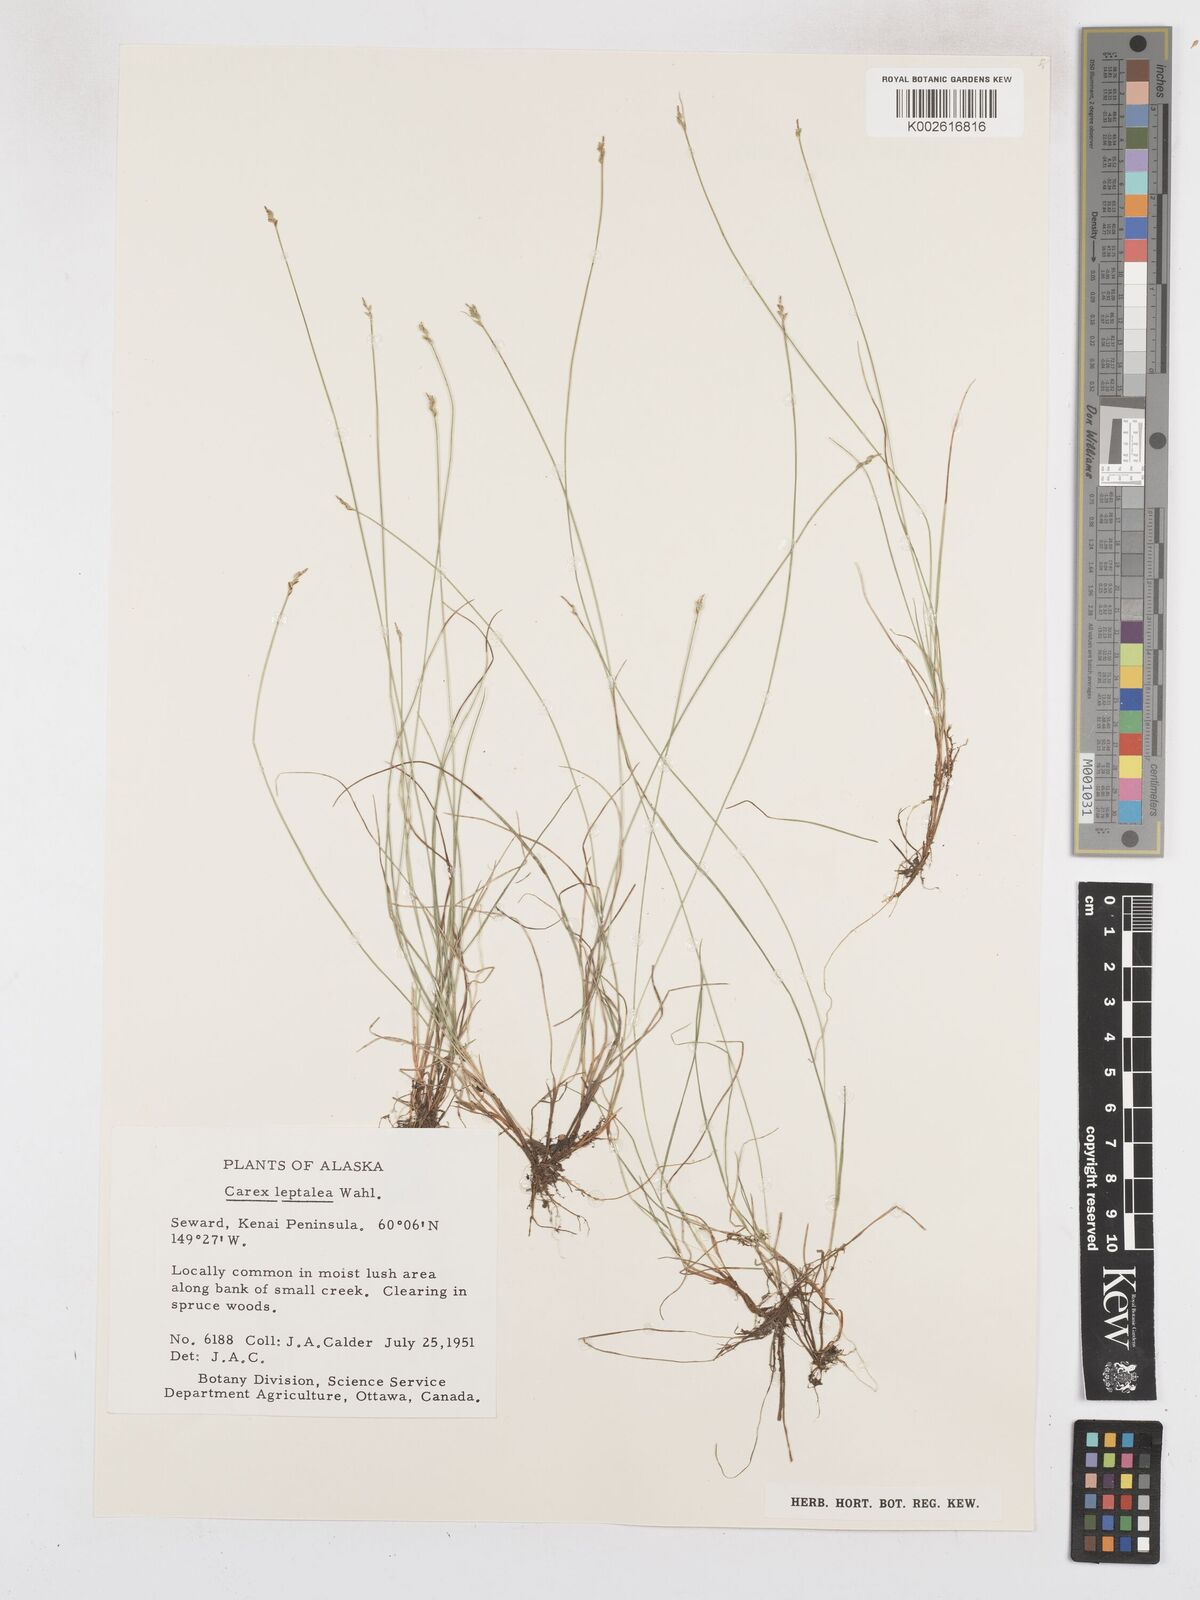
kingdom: Plantae
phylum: Tracheophyta
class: Liliopsida
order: Poales
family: Cyperaceae
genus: Carex
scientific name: Carex leptalea
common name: Bristly-stalked sedge
